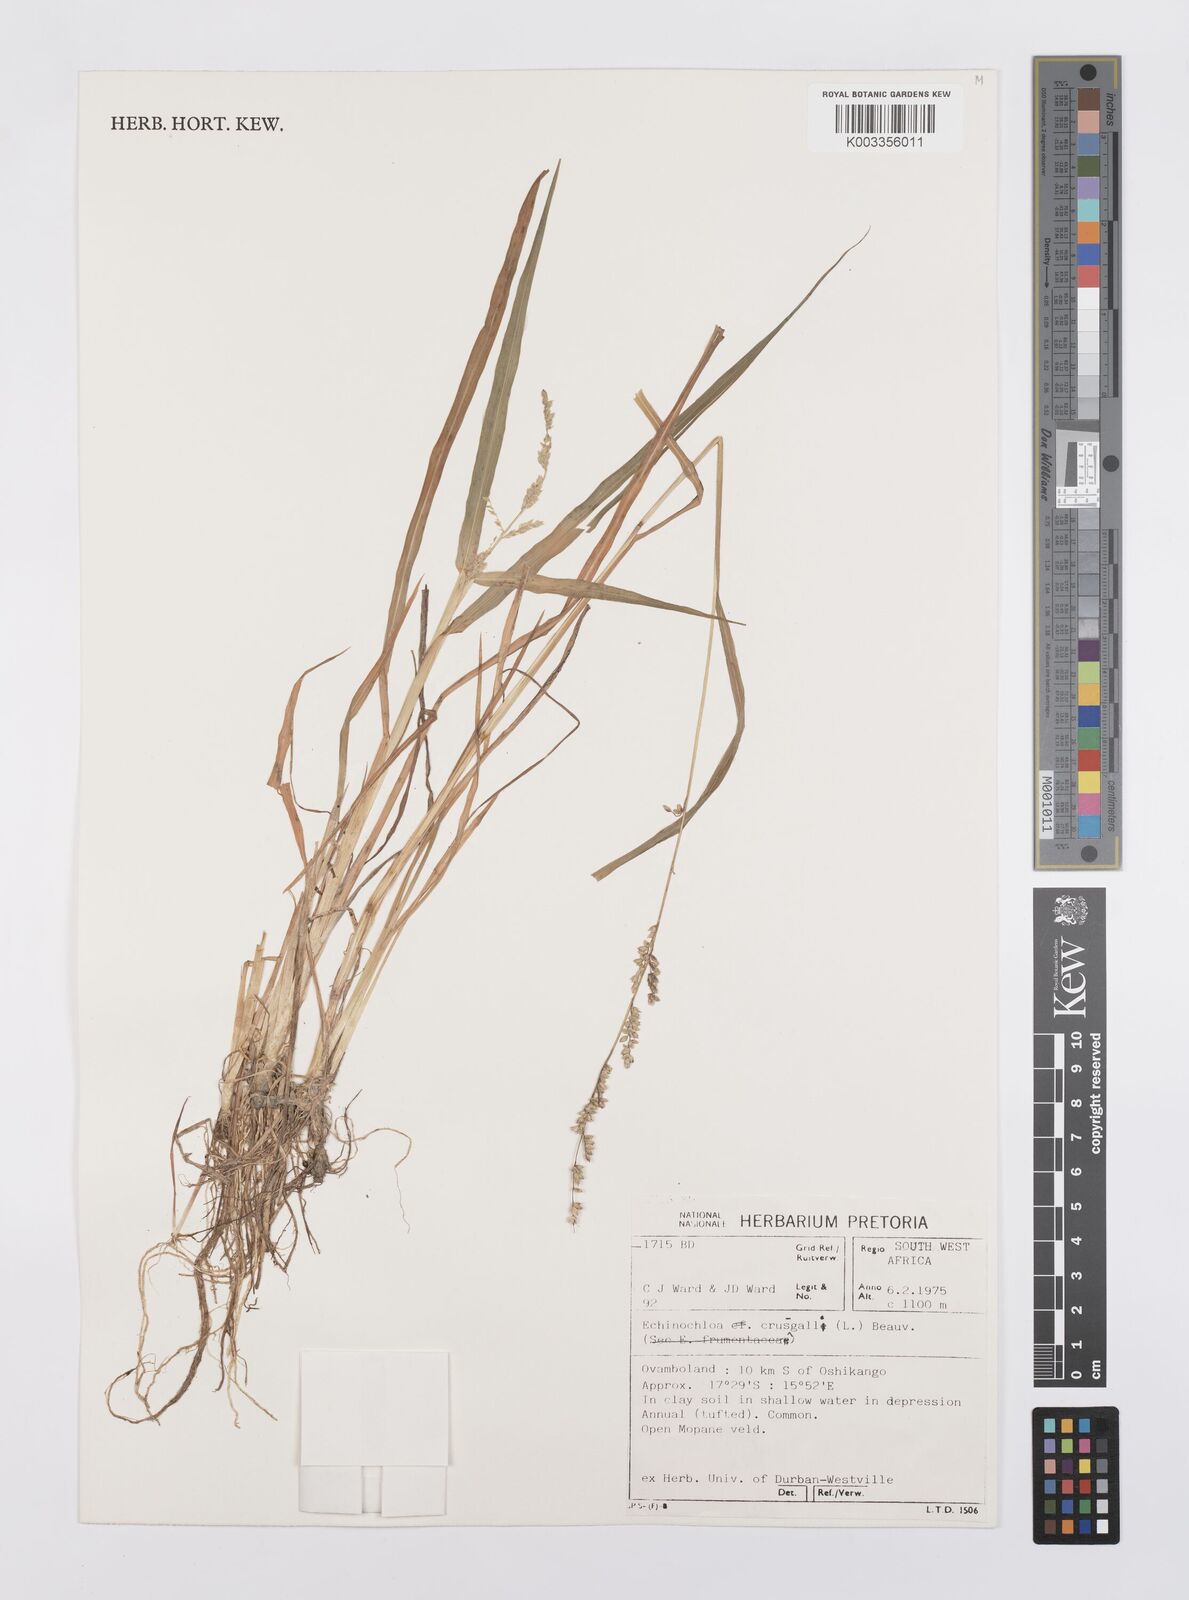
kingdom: Plantae
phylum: Tracheophyta
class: Liliopsida
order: Poales
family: Poaceae
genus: Echinochloa
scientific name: Echinochloa colonum
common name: Jungle rice
